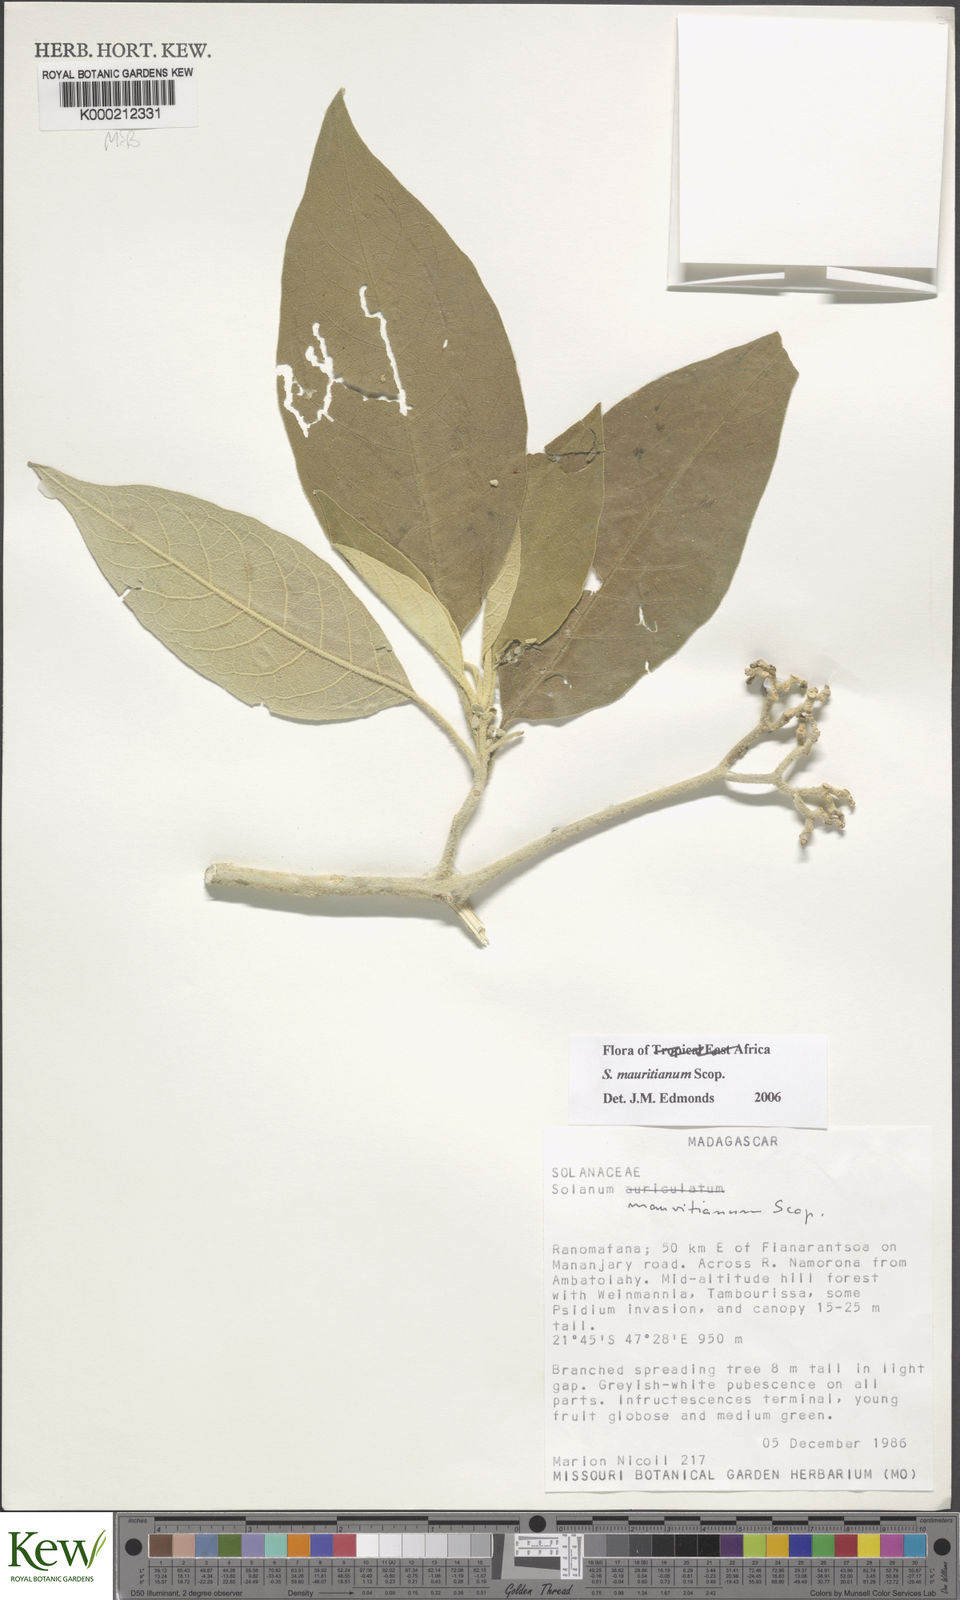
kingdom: Plantae
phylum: Tracheophyta
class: Magnoliopsida
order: Solanales
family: Solanaceae
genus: Solanum
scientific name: Solanum mauritianum
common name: Earleaf nightshade
